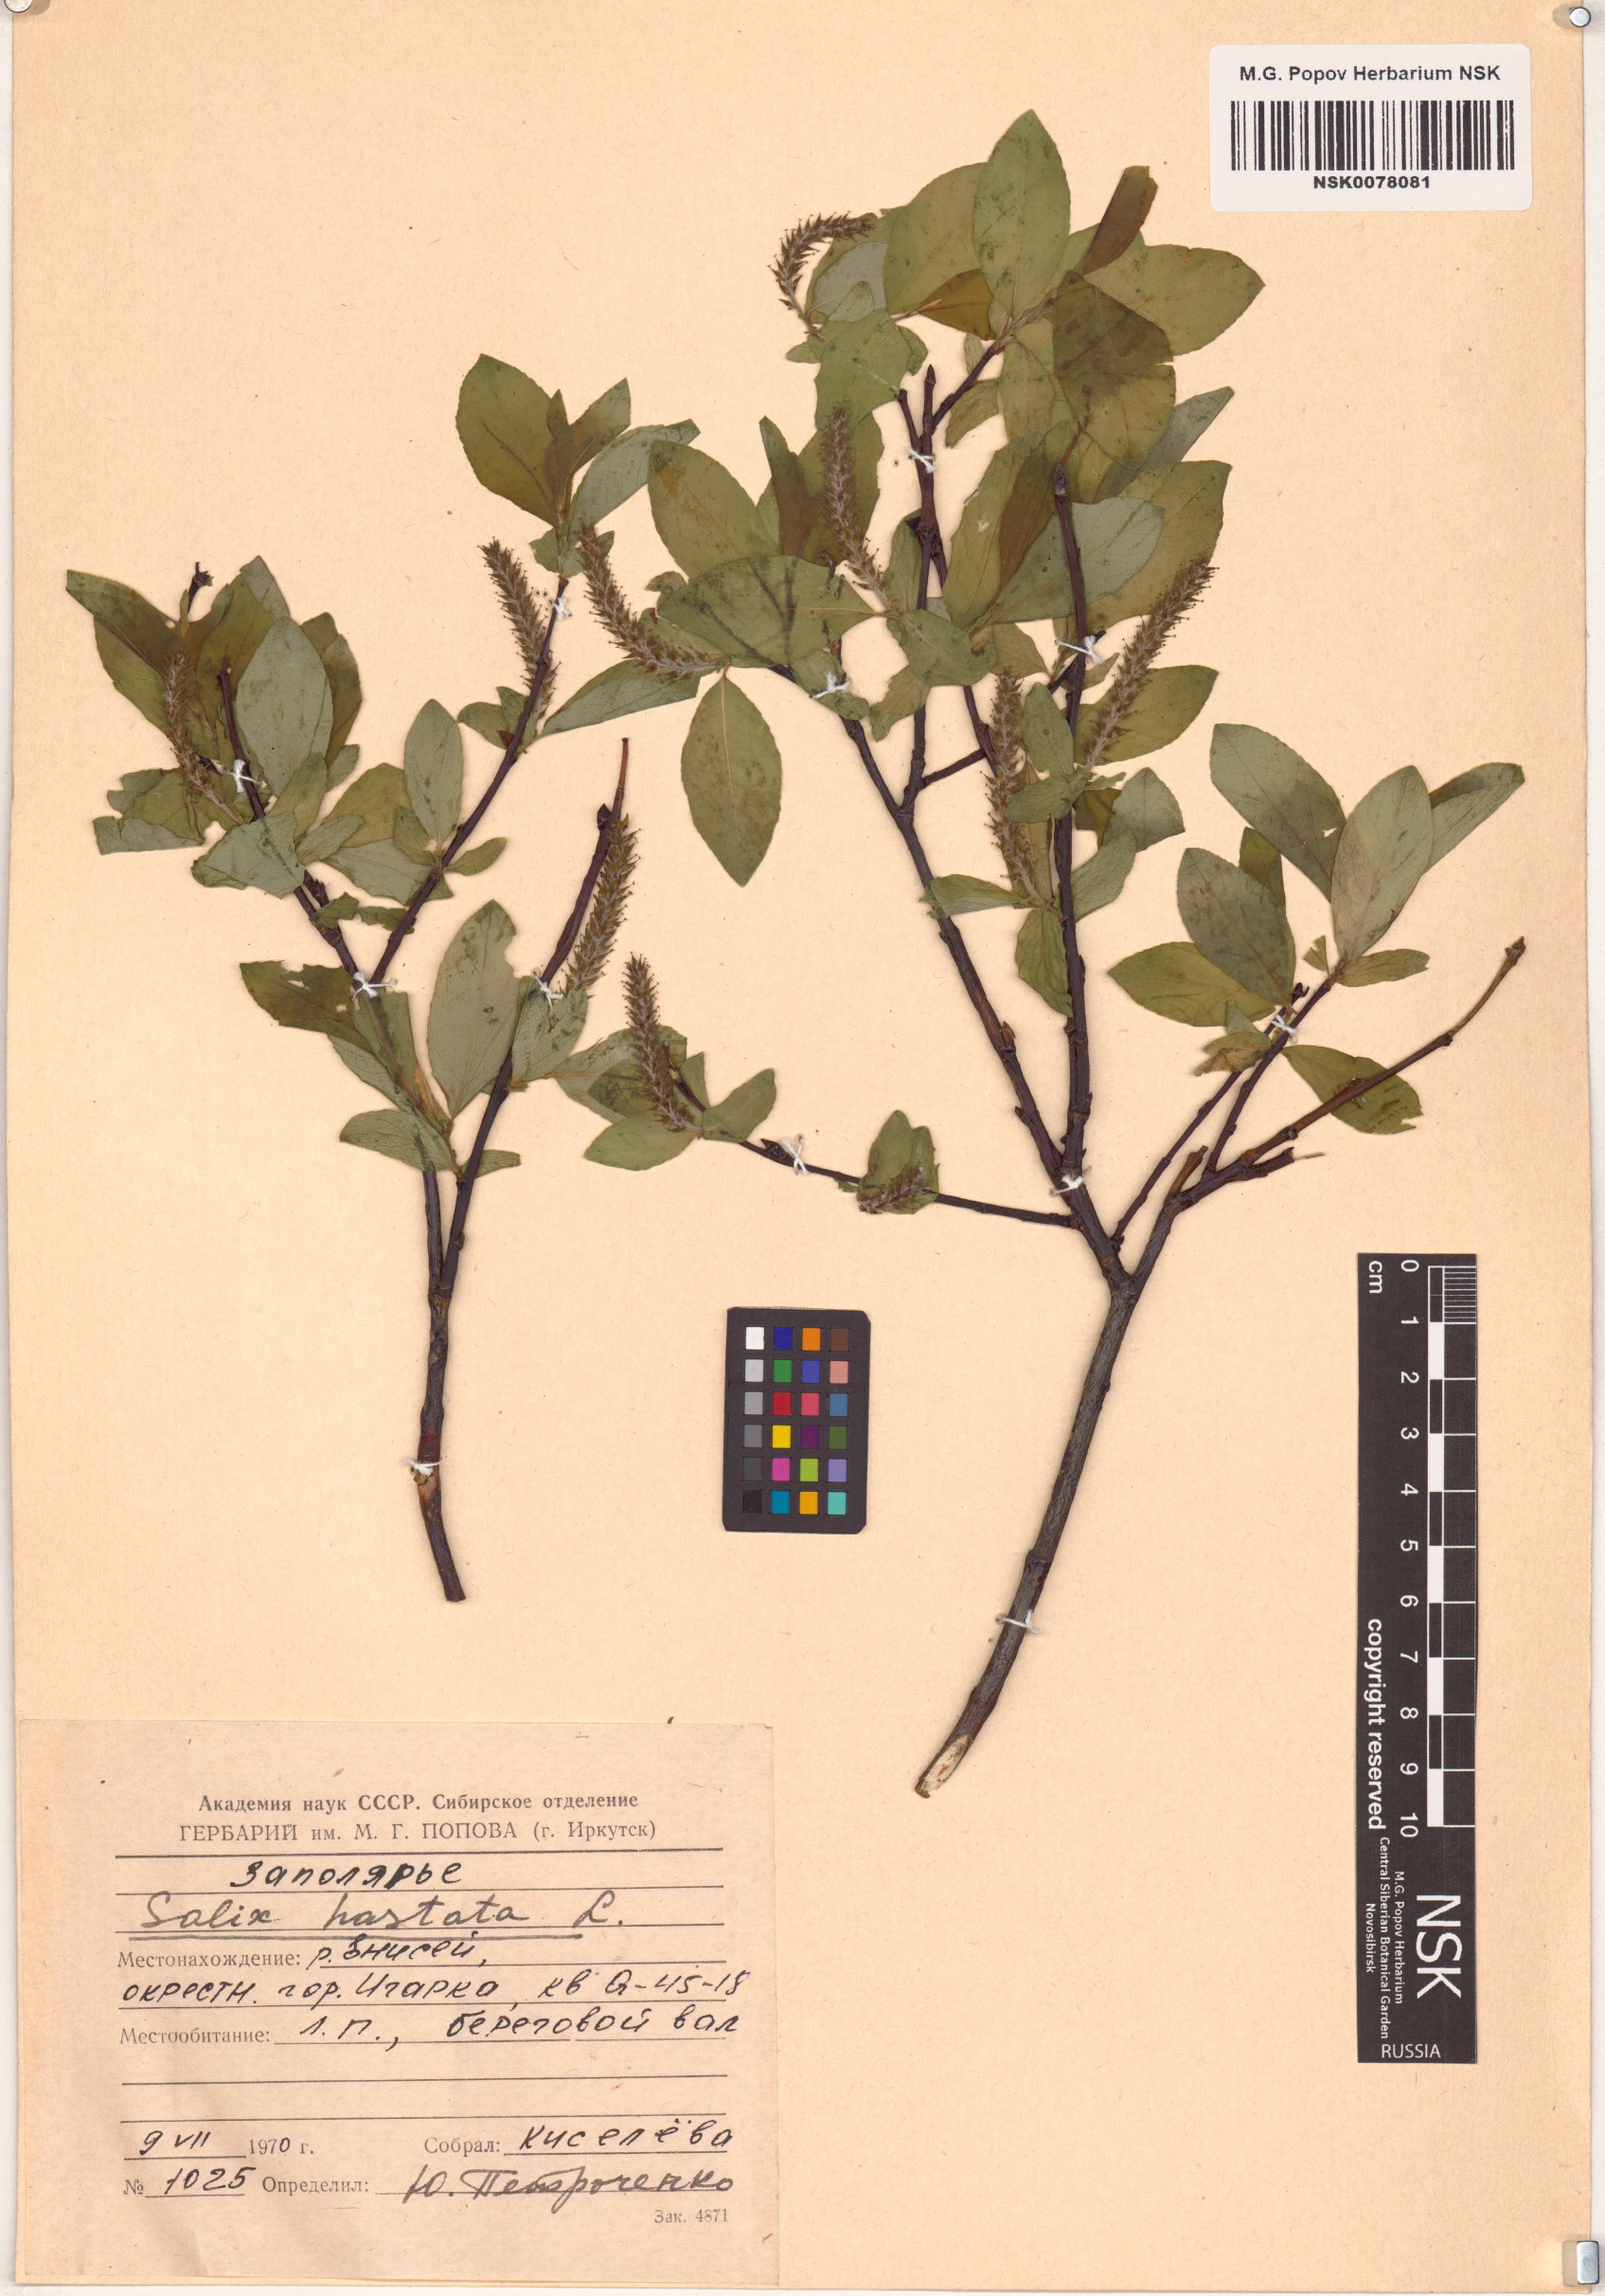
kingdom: Plantae
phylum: Tracheophyta
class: Magnoliopsida
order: Malpighiales
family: Salicaceae
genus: Salix
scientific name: Salix hastata
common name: Halberd willow
